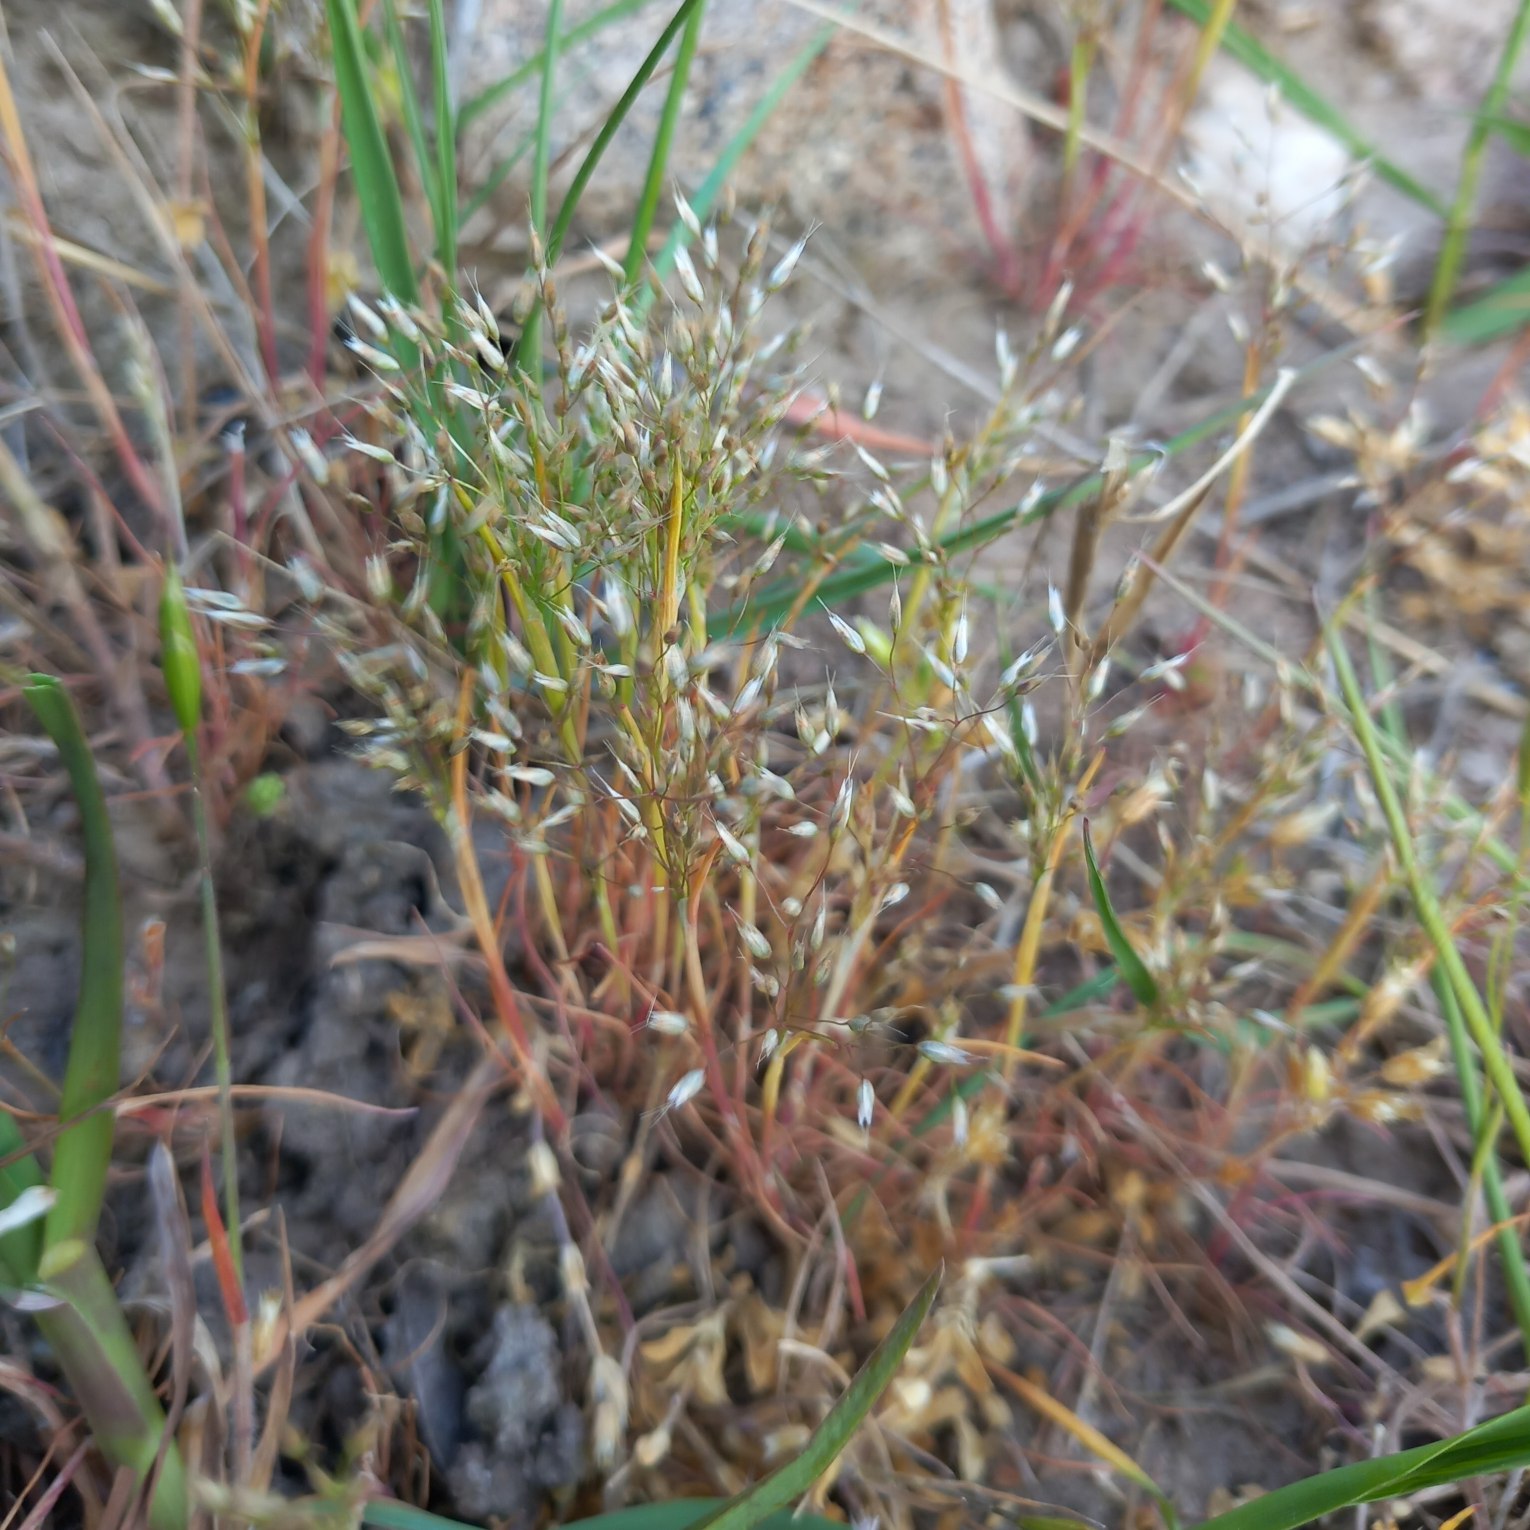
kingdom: Plantae
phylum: Tracheophyta
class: Liliopsida
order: Poales
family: Poaceae
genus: Aira
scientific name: Aira caryophyllea
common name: Udspærret dværgbunke
